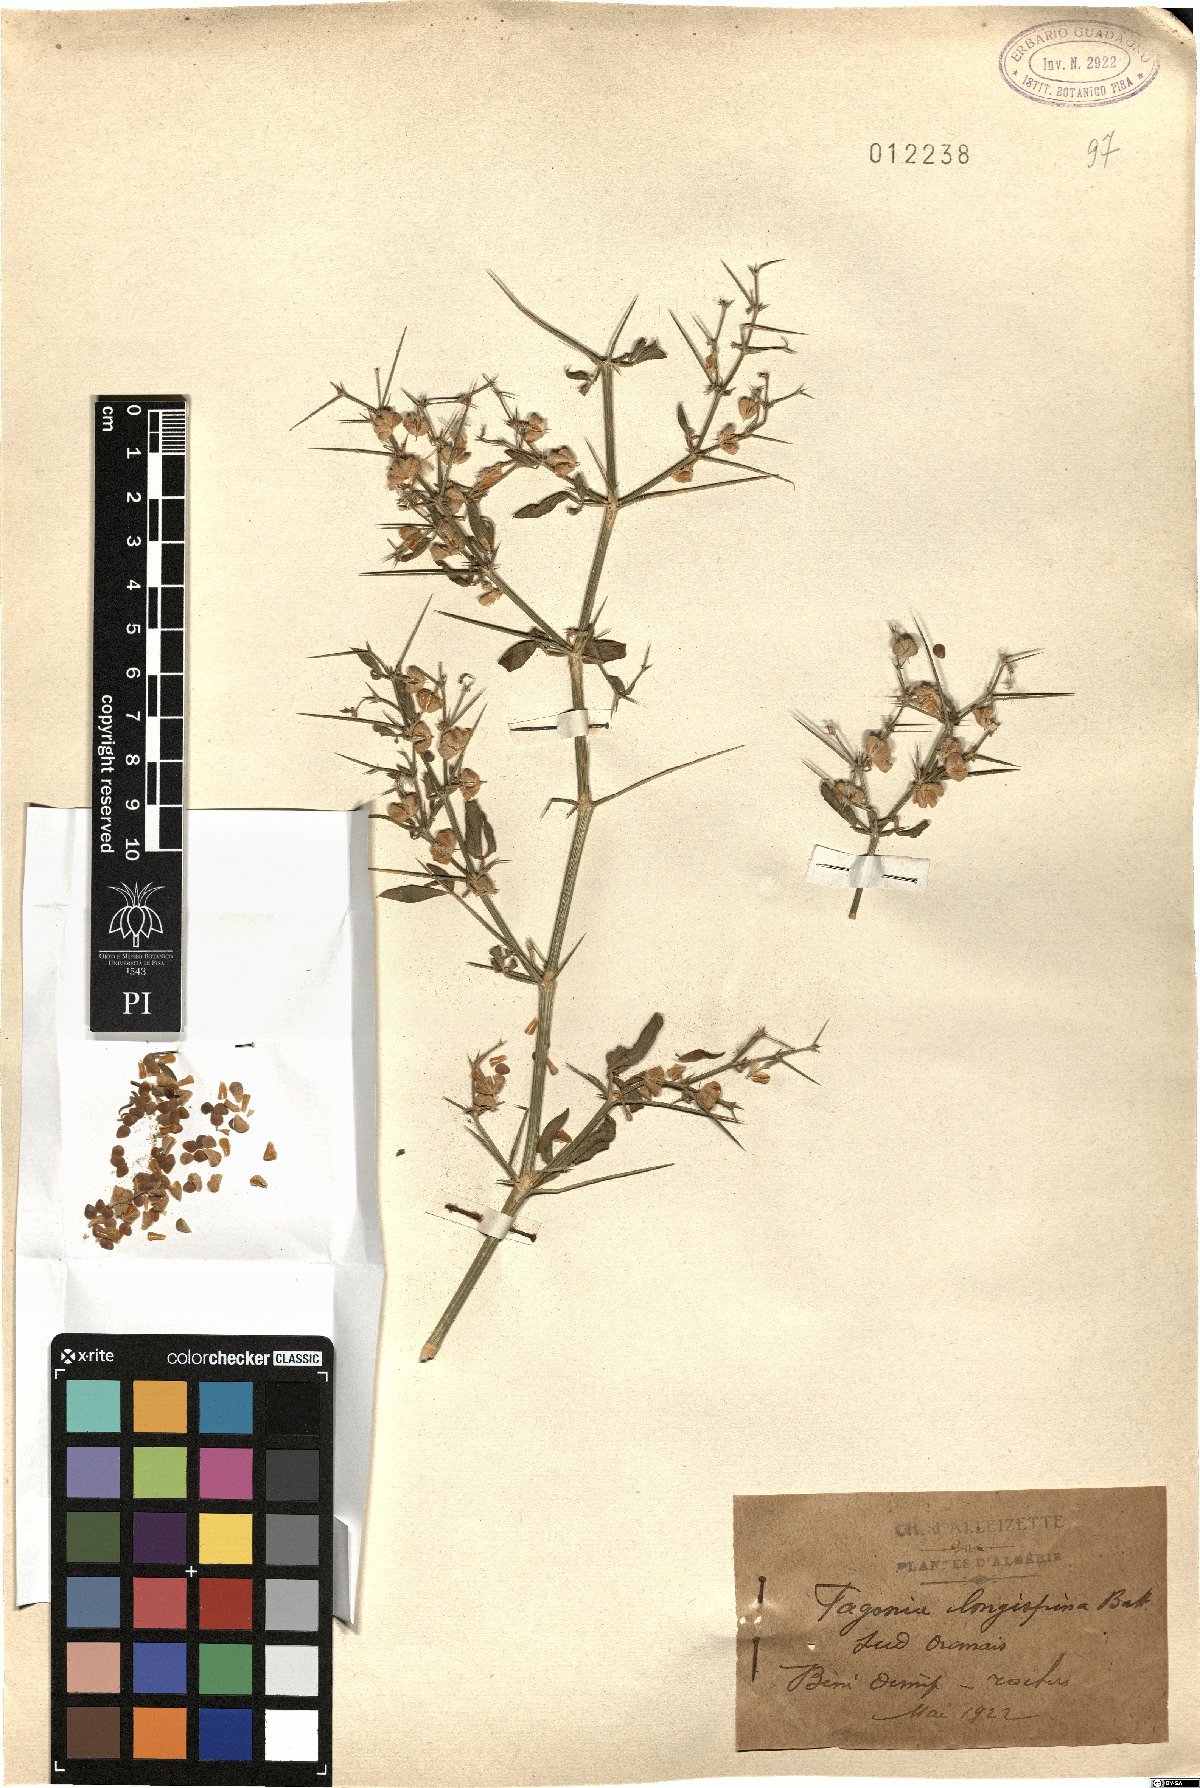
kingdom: Plantae
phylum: Tracheophyta
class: Magnoliopsida
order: Zygophyllales
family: Zygophyllaceae
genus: Fagonia
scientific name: Fagonia longispina
